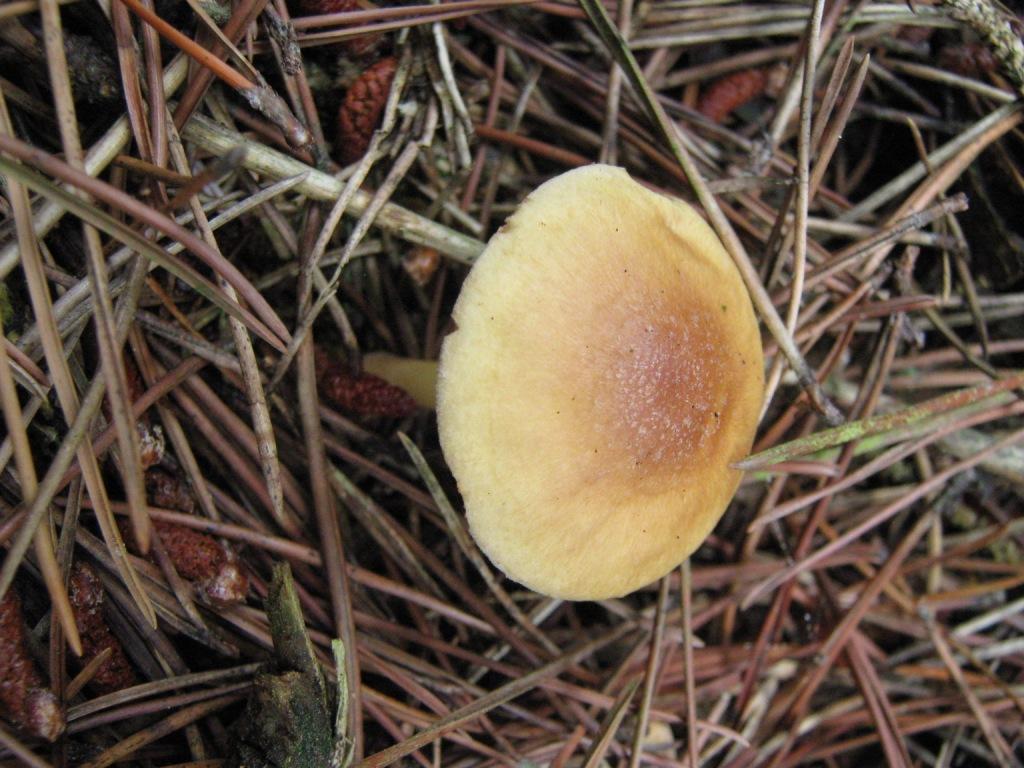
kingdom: Fungi
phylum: Basidiomycota
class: Agaricomycetes
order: Agaricales
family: Omphalotaceae
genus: Collybiopsis
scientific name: Collybiopsis peronata
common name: bestøvlet fladhat
